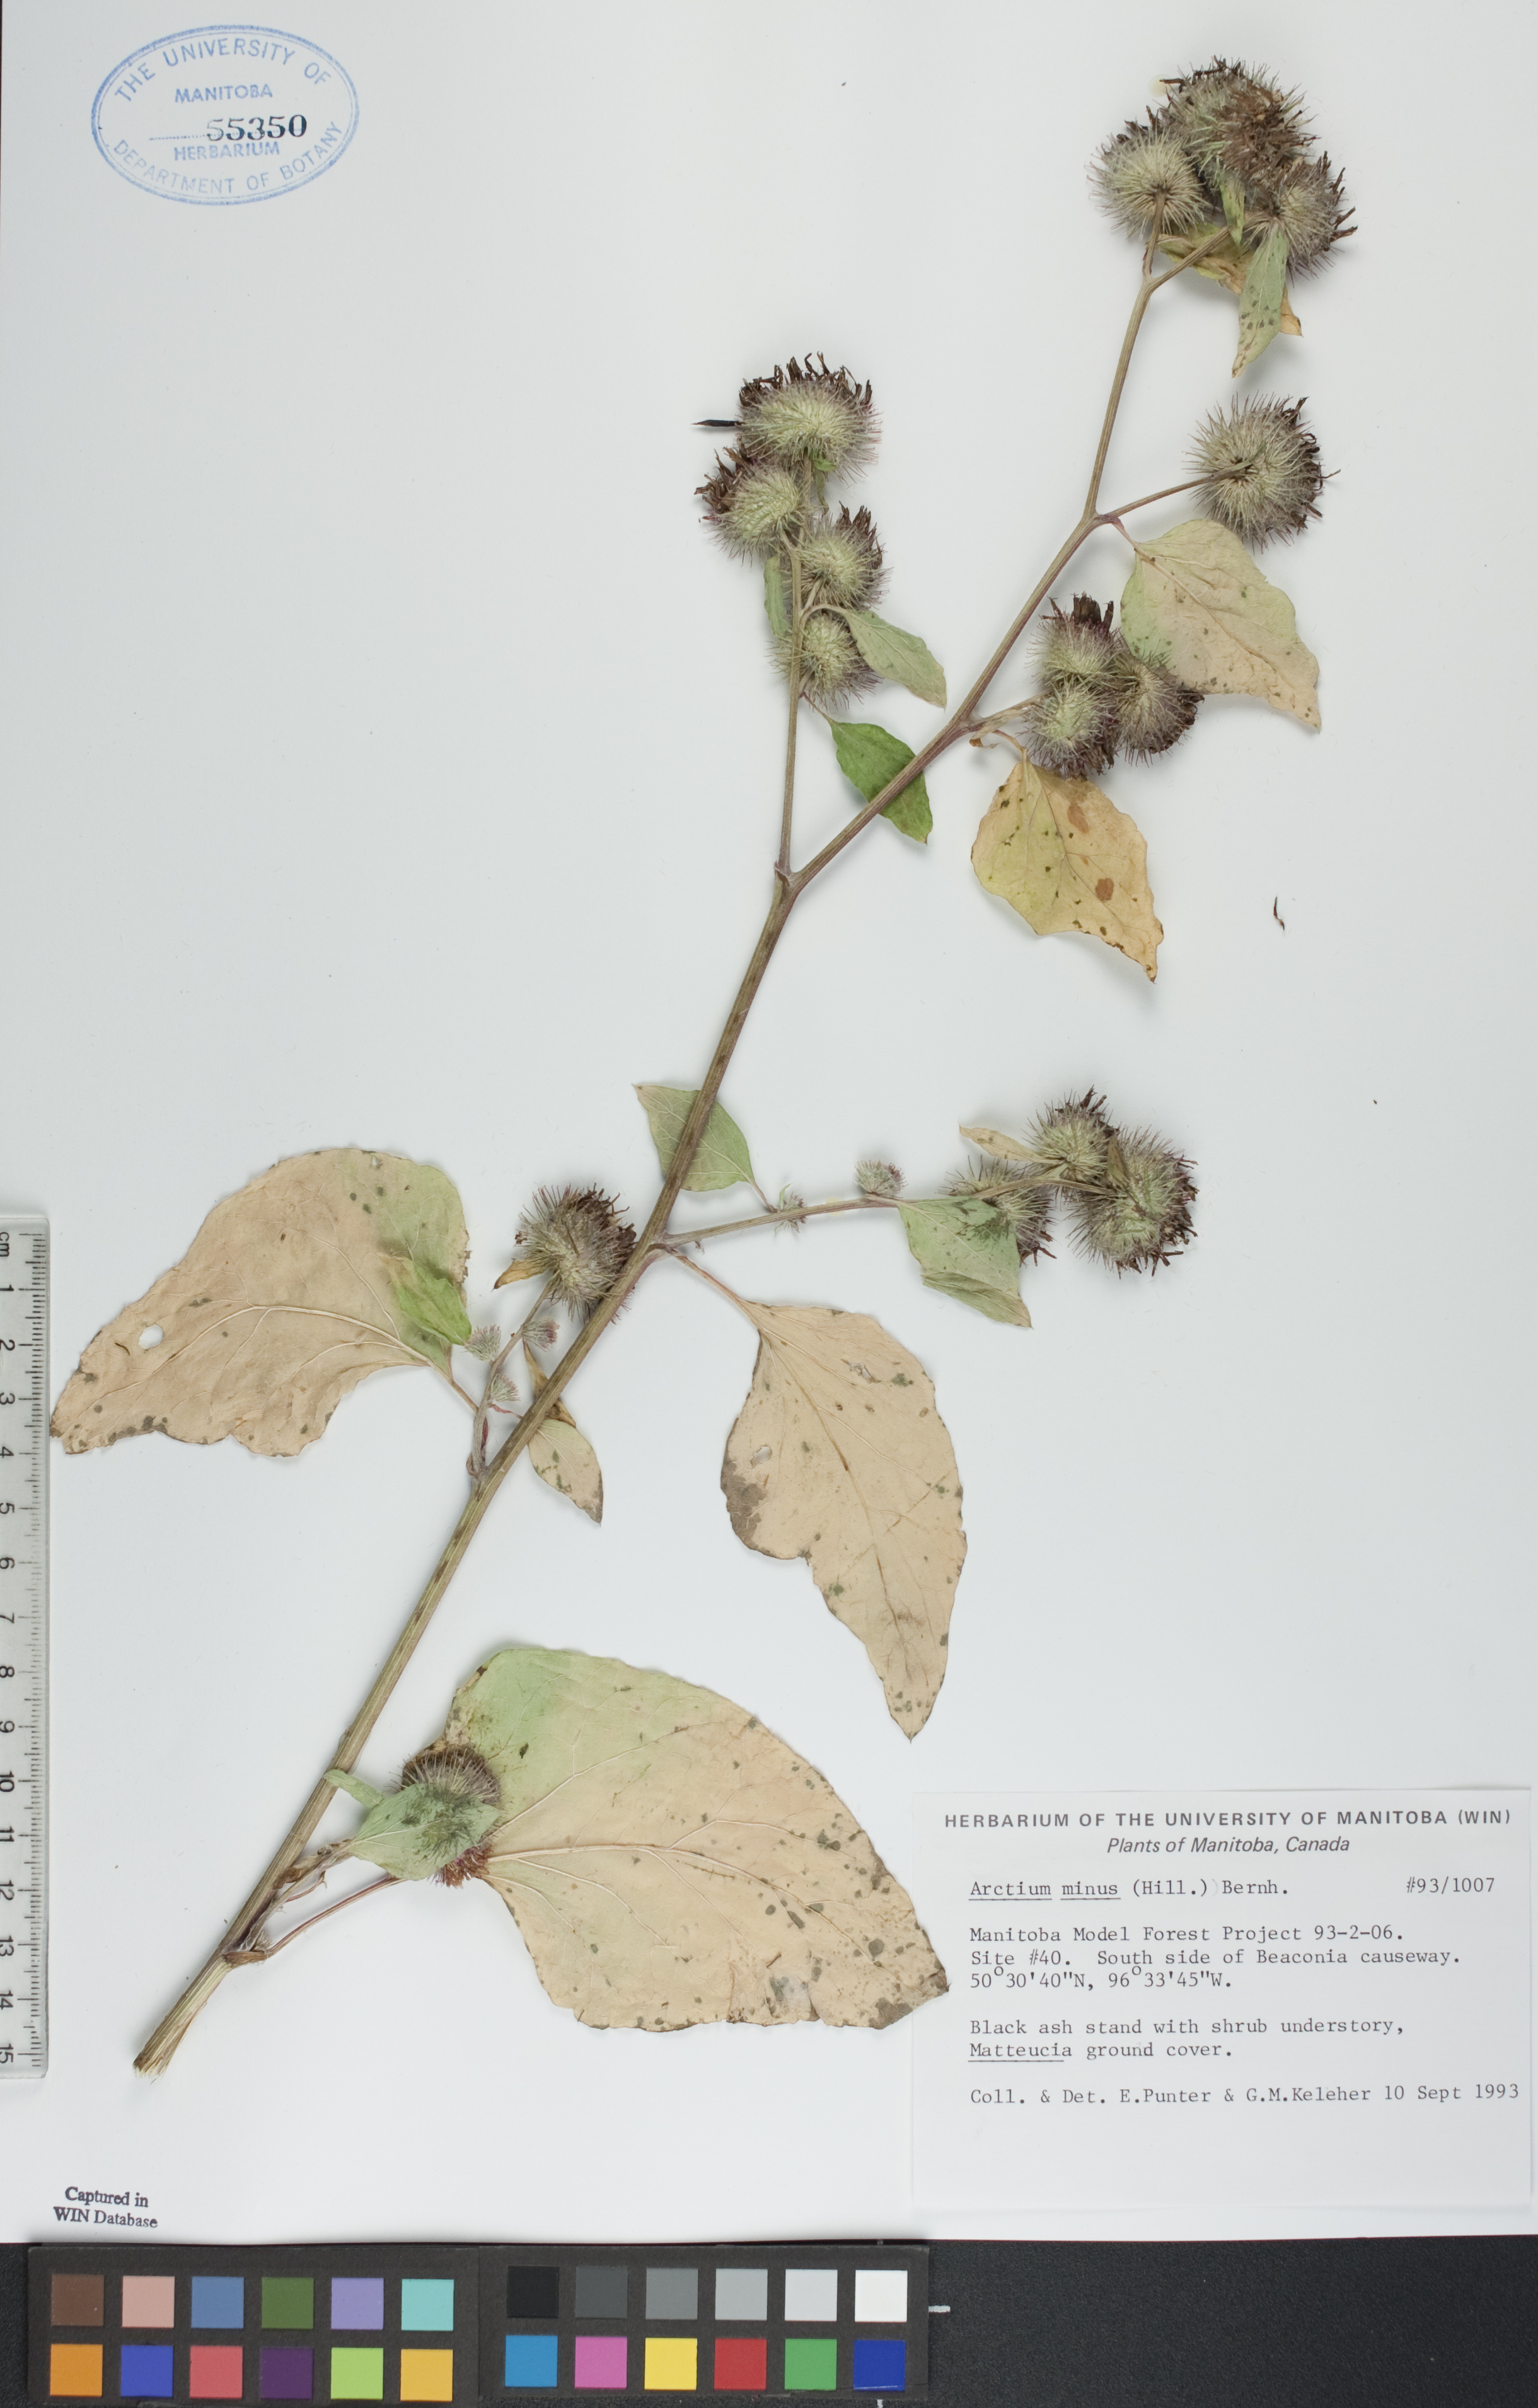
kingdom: Plantae
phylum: Tracheophyta
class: Magnoliopsida
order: Asterales
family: Asteraceae
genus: Arctium
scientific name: Arctium minus
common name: Lesser burdock
